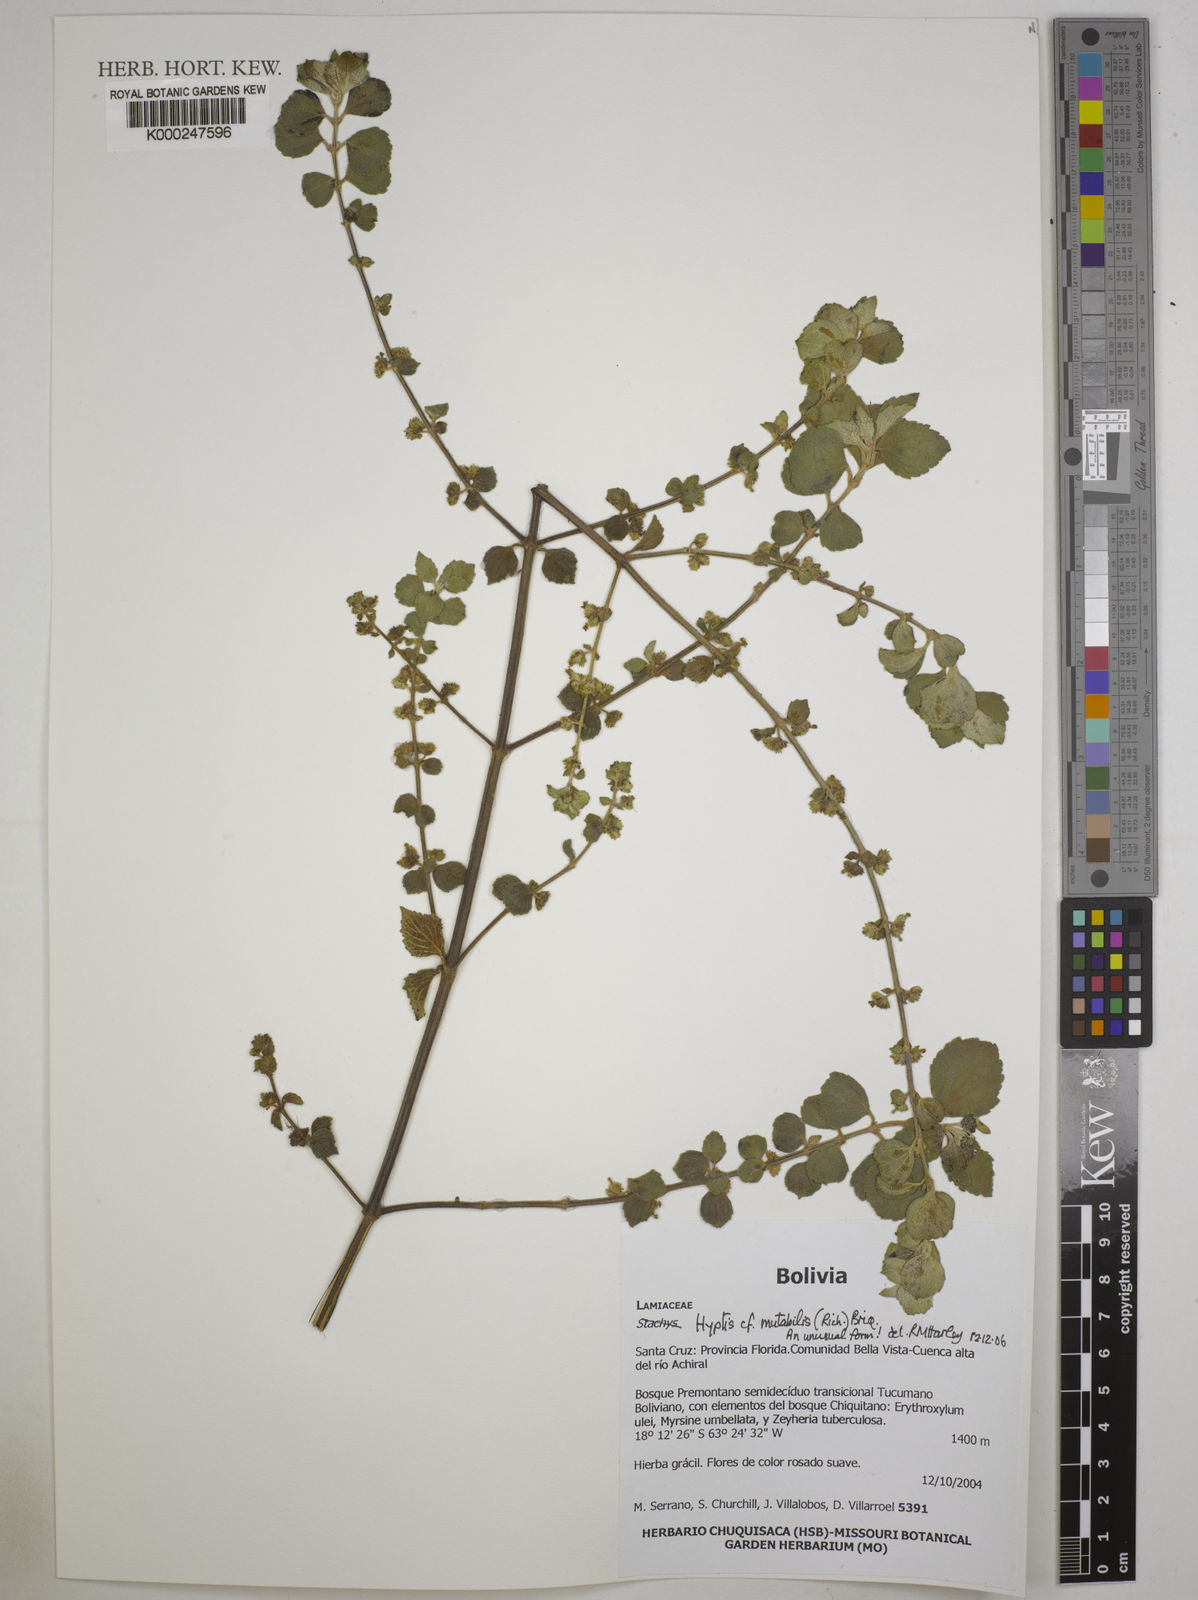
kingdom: Plantae
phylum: Tracheophyta
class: Magnoliopsida
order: Lamiales
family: Lamiaceae
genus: Cantinoa
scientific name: Cantinoa mutabilis
